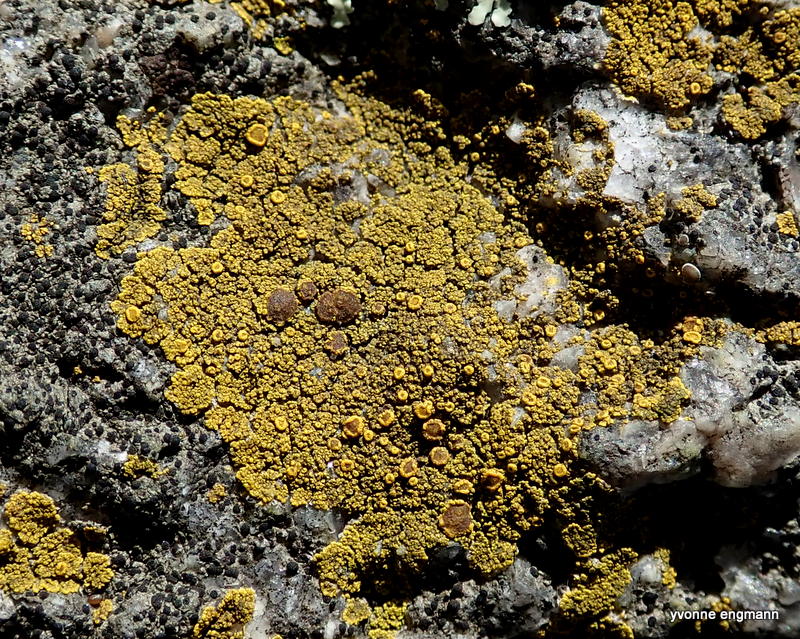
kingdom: Fungi
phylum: Ascomycota
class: Candelariomycetes
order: Candelariales
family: Candelariaceae
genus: Candelariella
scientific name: Candelariella vitellina
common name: almindelig æggeblommelav
